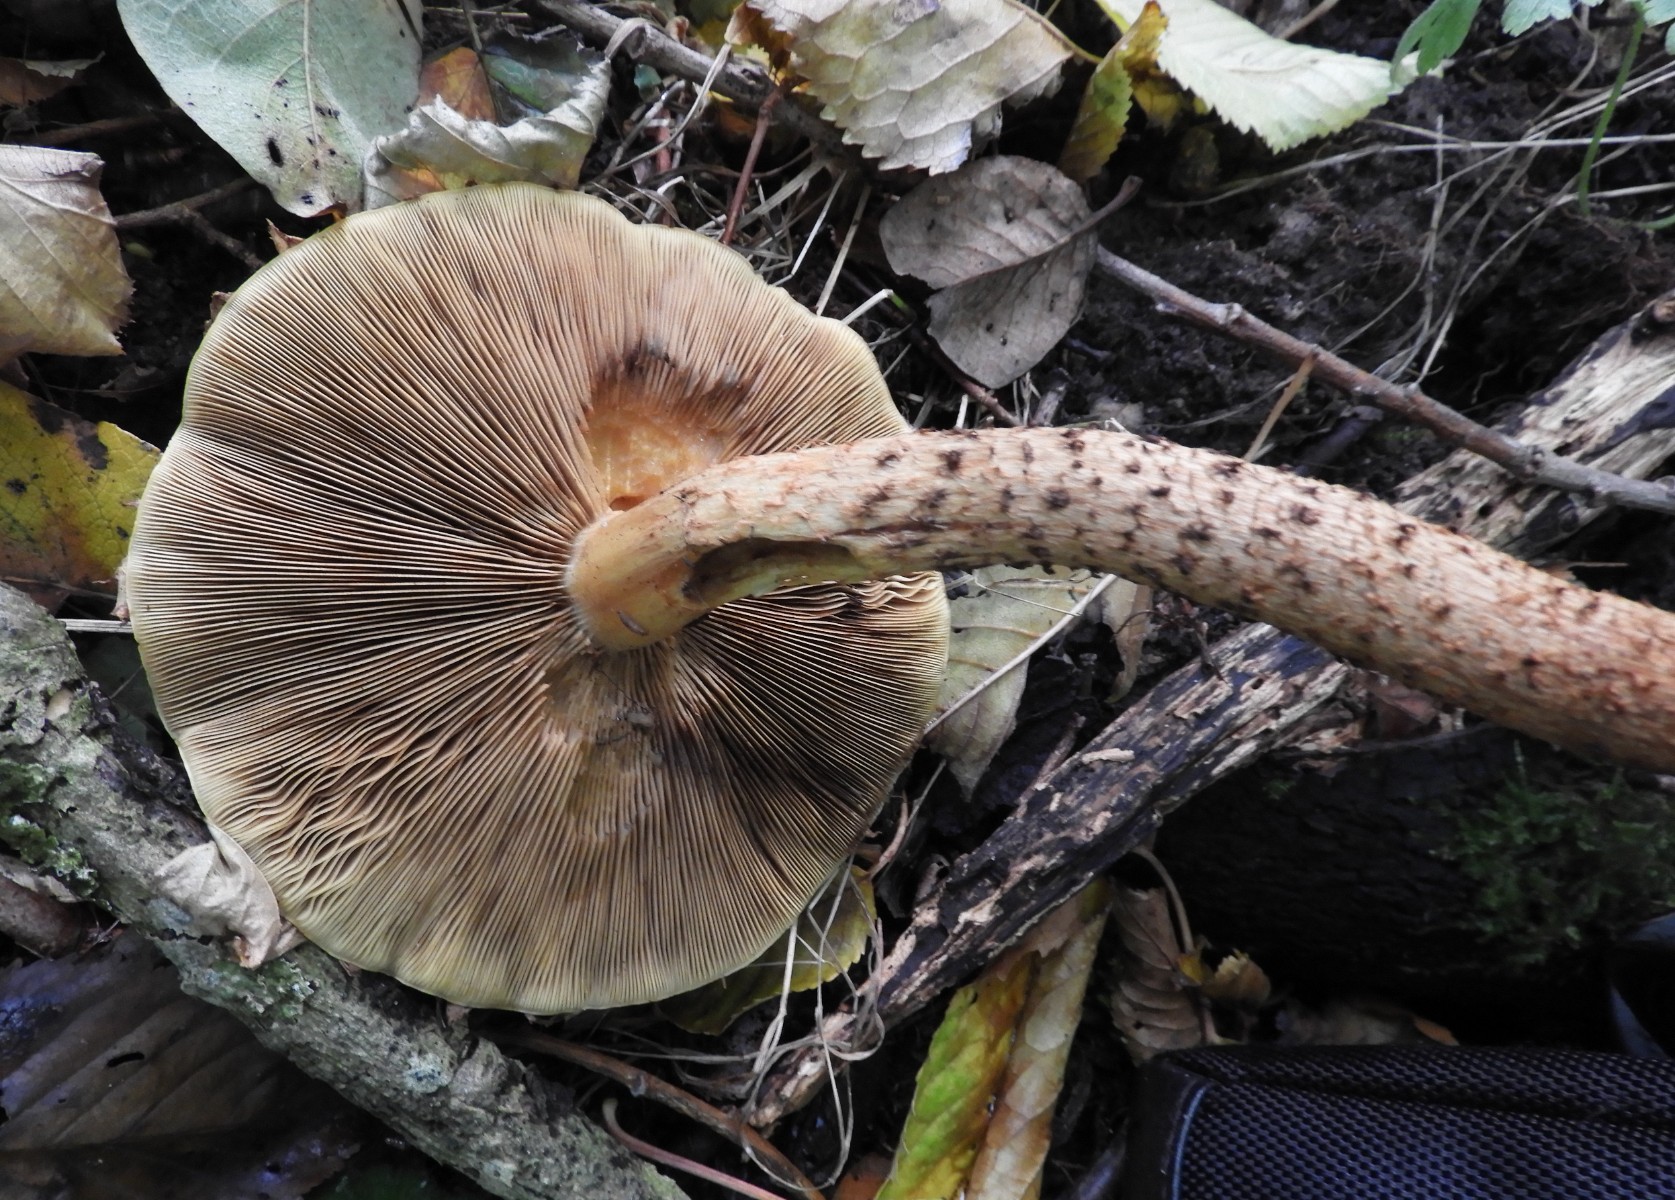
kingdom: Fungi
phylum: Basidiomycota
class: Agaricomycetes
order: Agaricales
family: Strophariaceae
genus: Pholiota
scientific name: Pholiota squarrosa
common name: krumskællet skælhat
